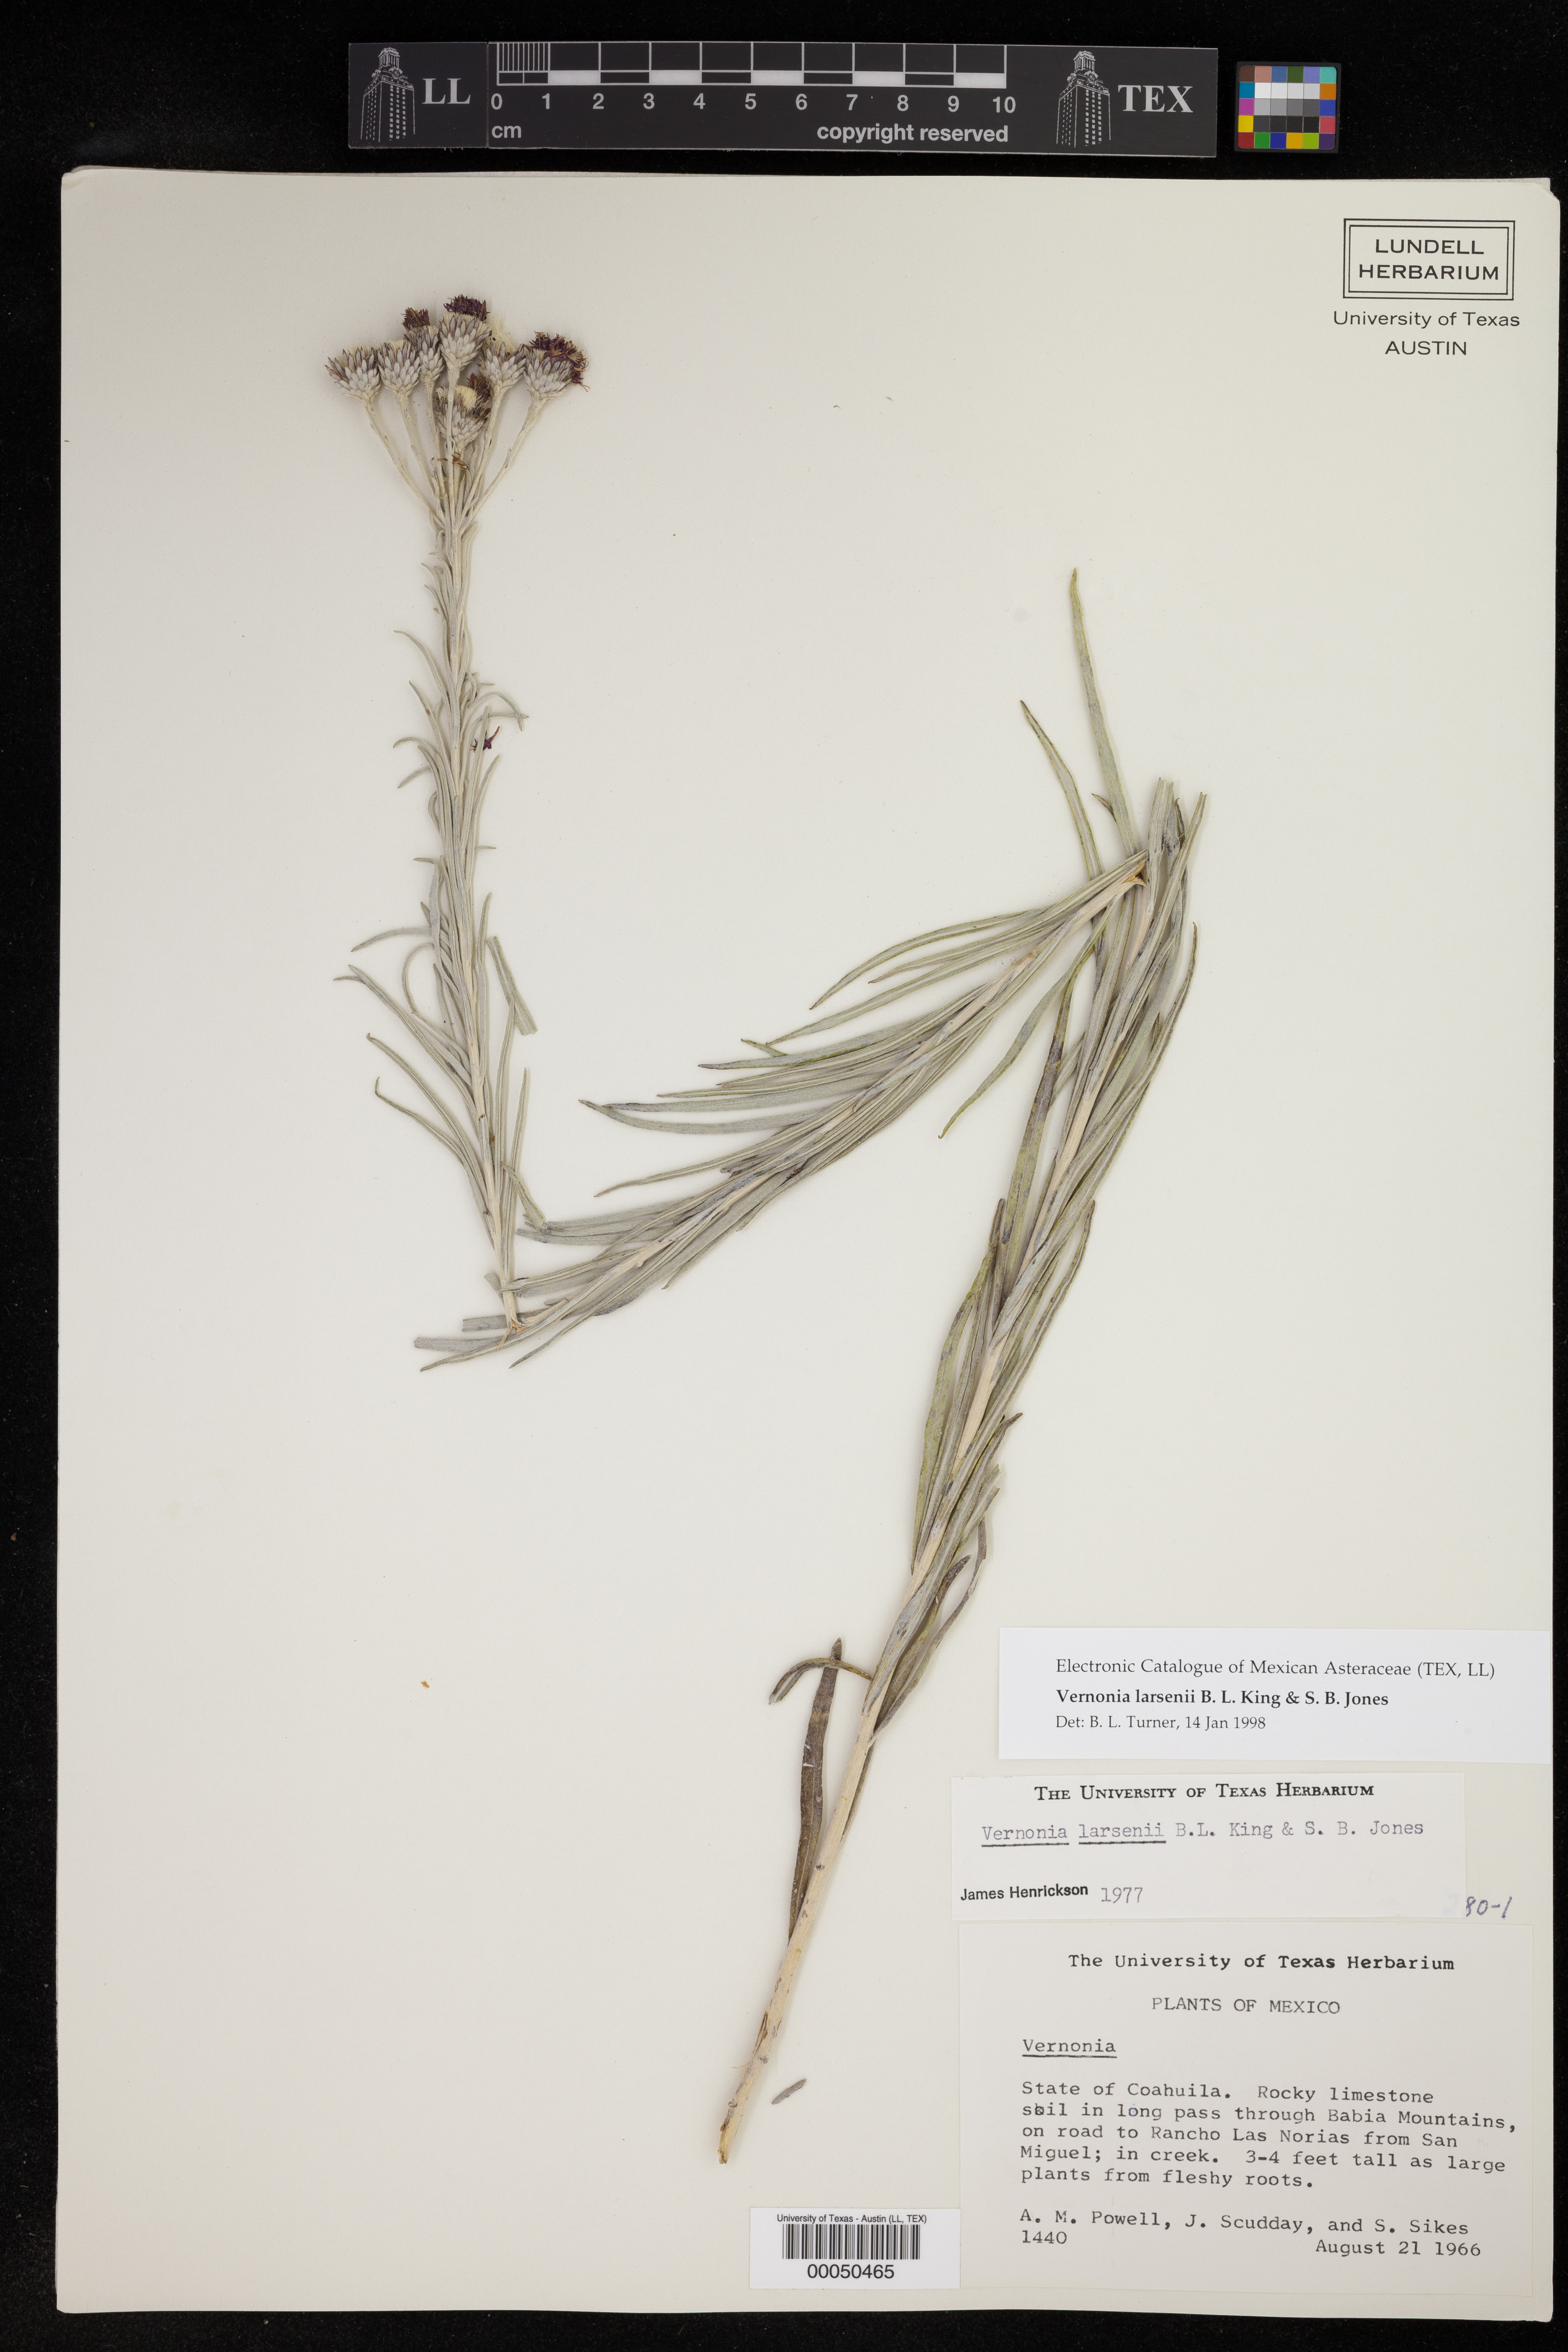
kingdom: Plantae
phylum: Tracheophyta
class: Magnoliopsida
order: Asterales
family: Asteraceae
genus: Vernonia
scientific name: Vernonia larseniae
